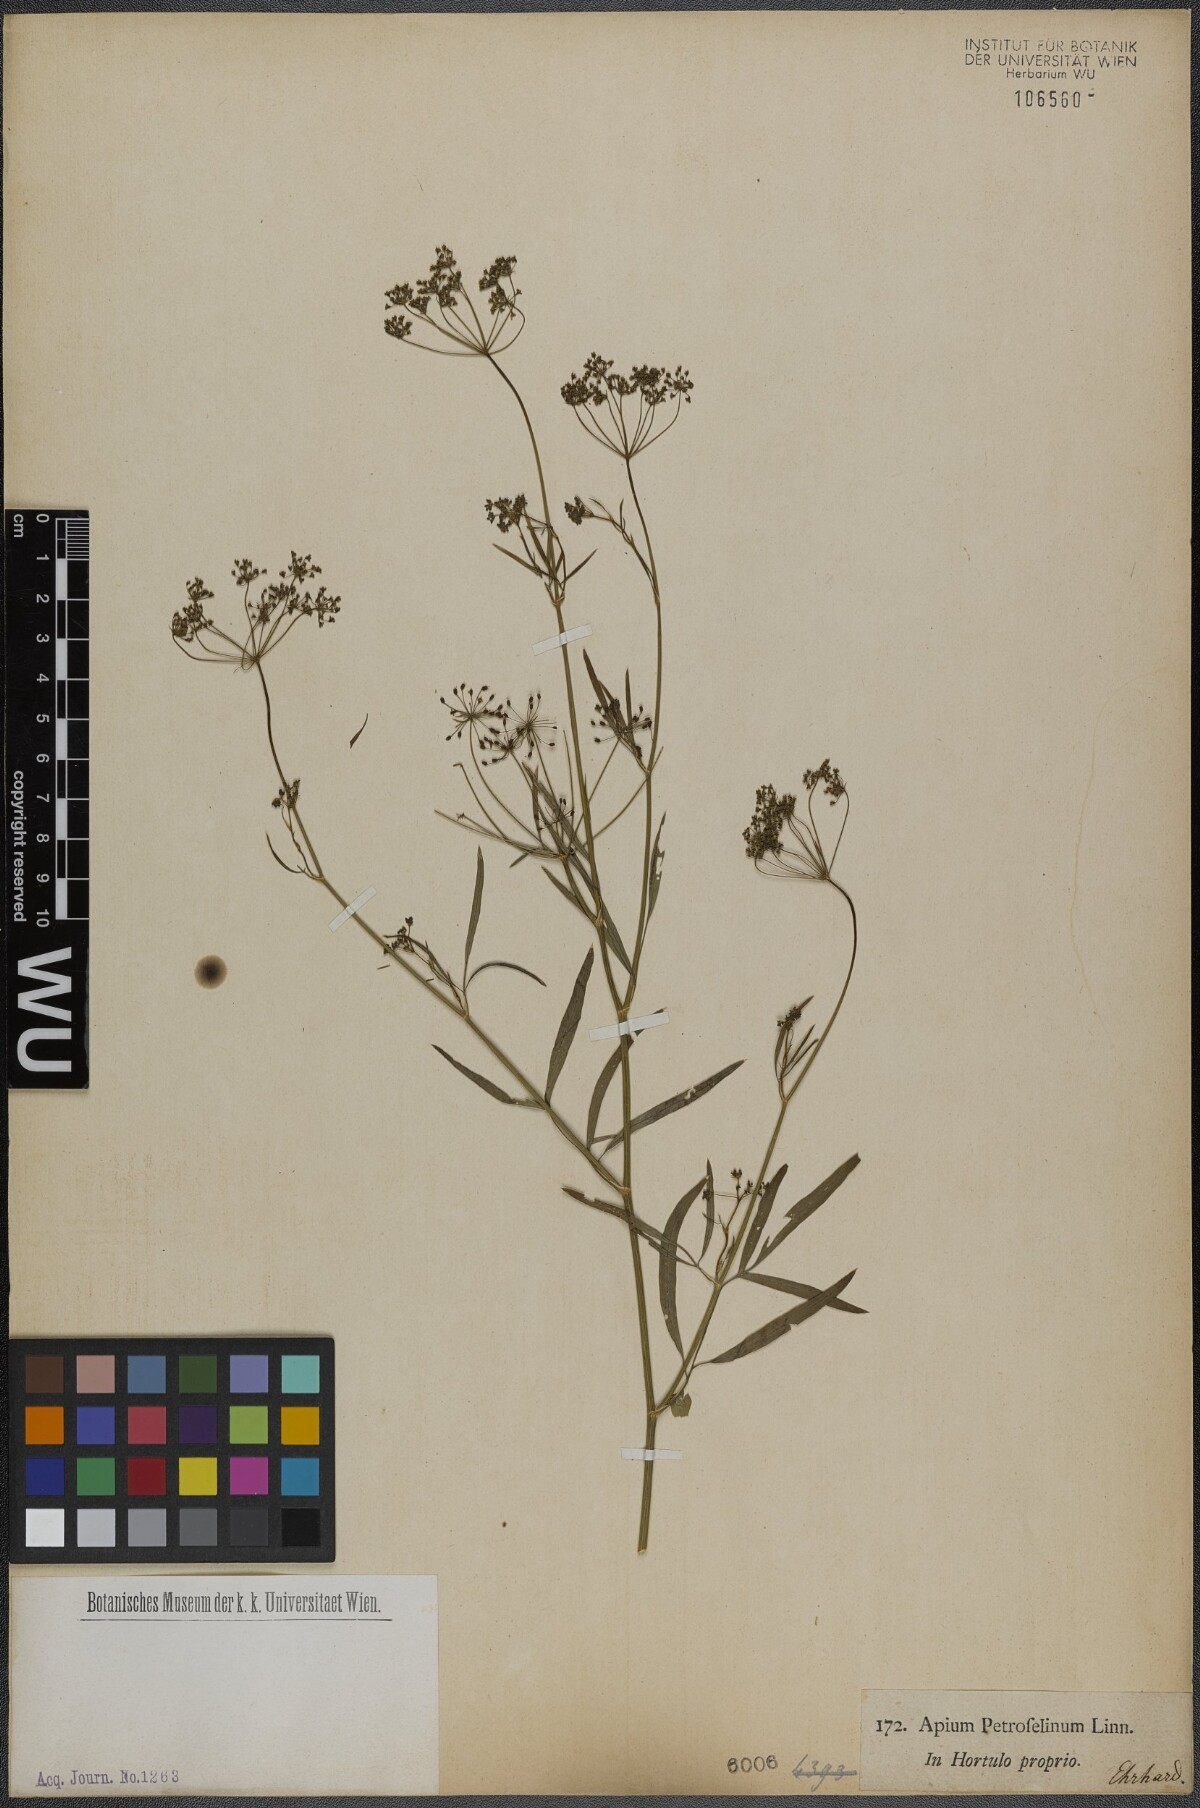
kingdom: Plantae
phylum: Tracheophyta
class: Magnoliopsida
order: Apiales
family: Apiaceae
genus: Petroselinum
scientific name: Petroselinum crispum
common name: Parsley
